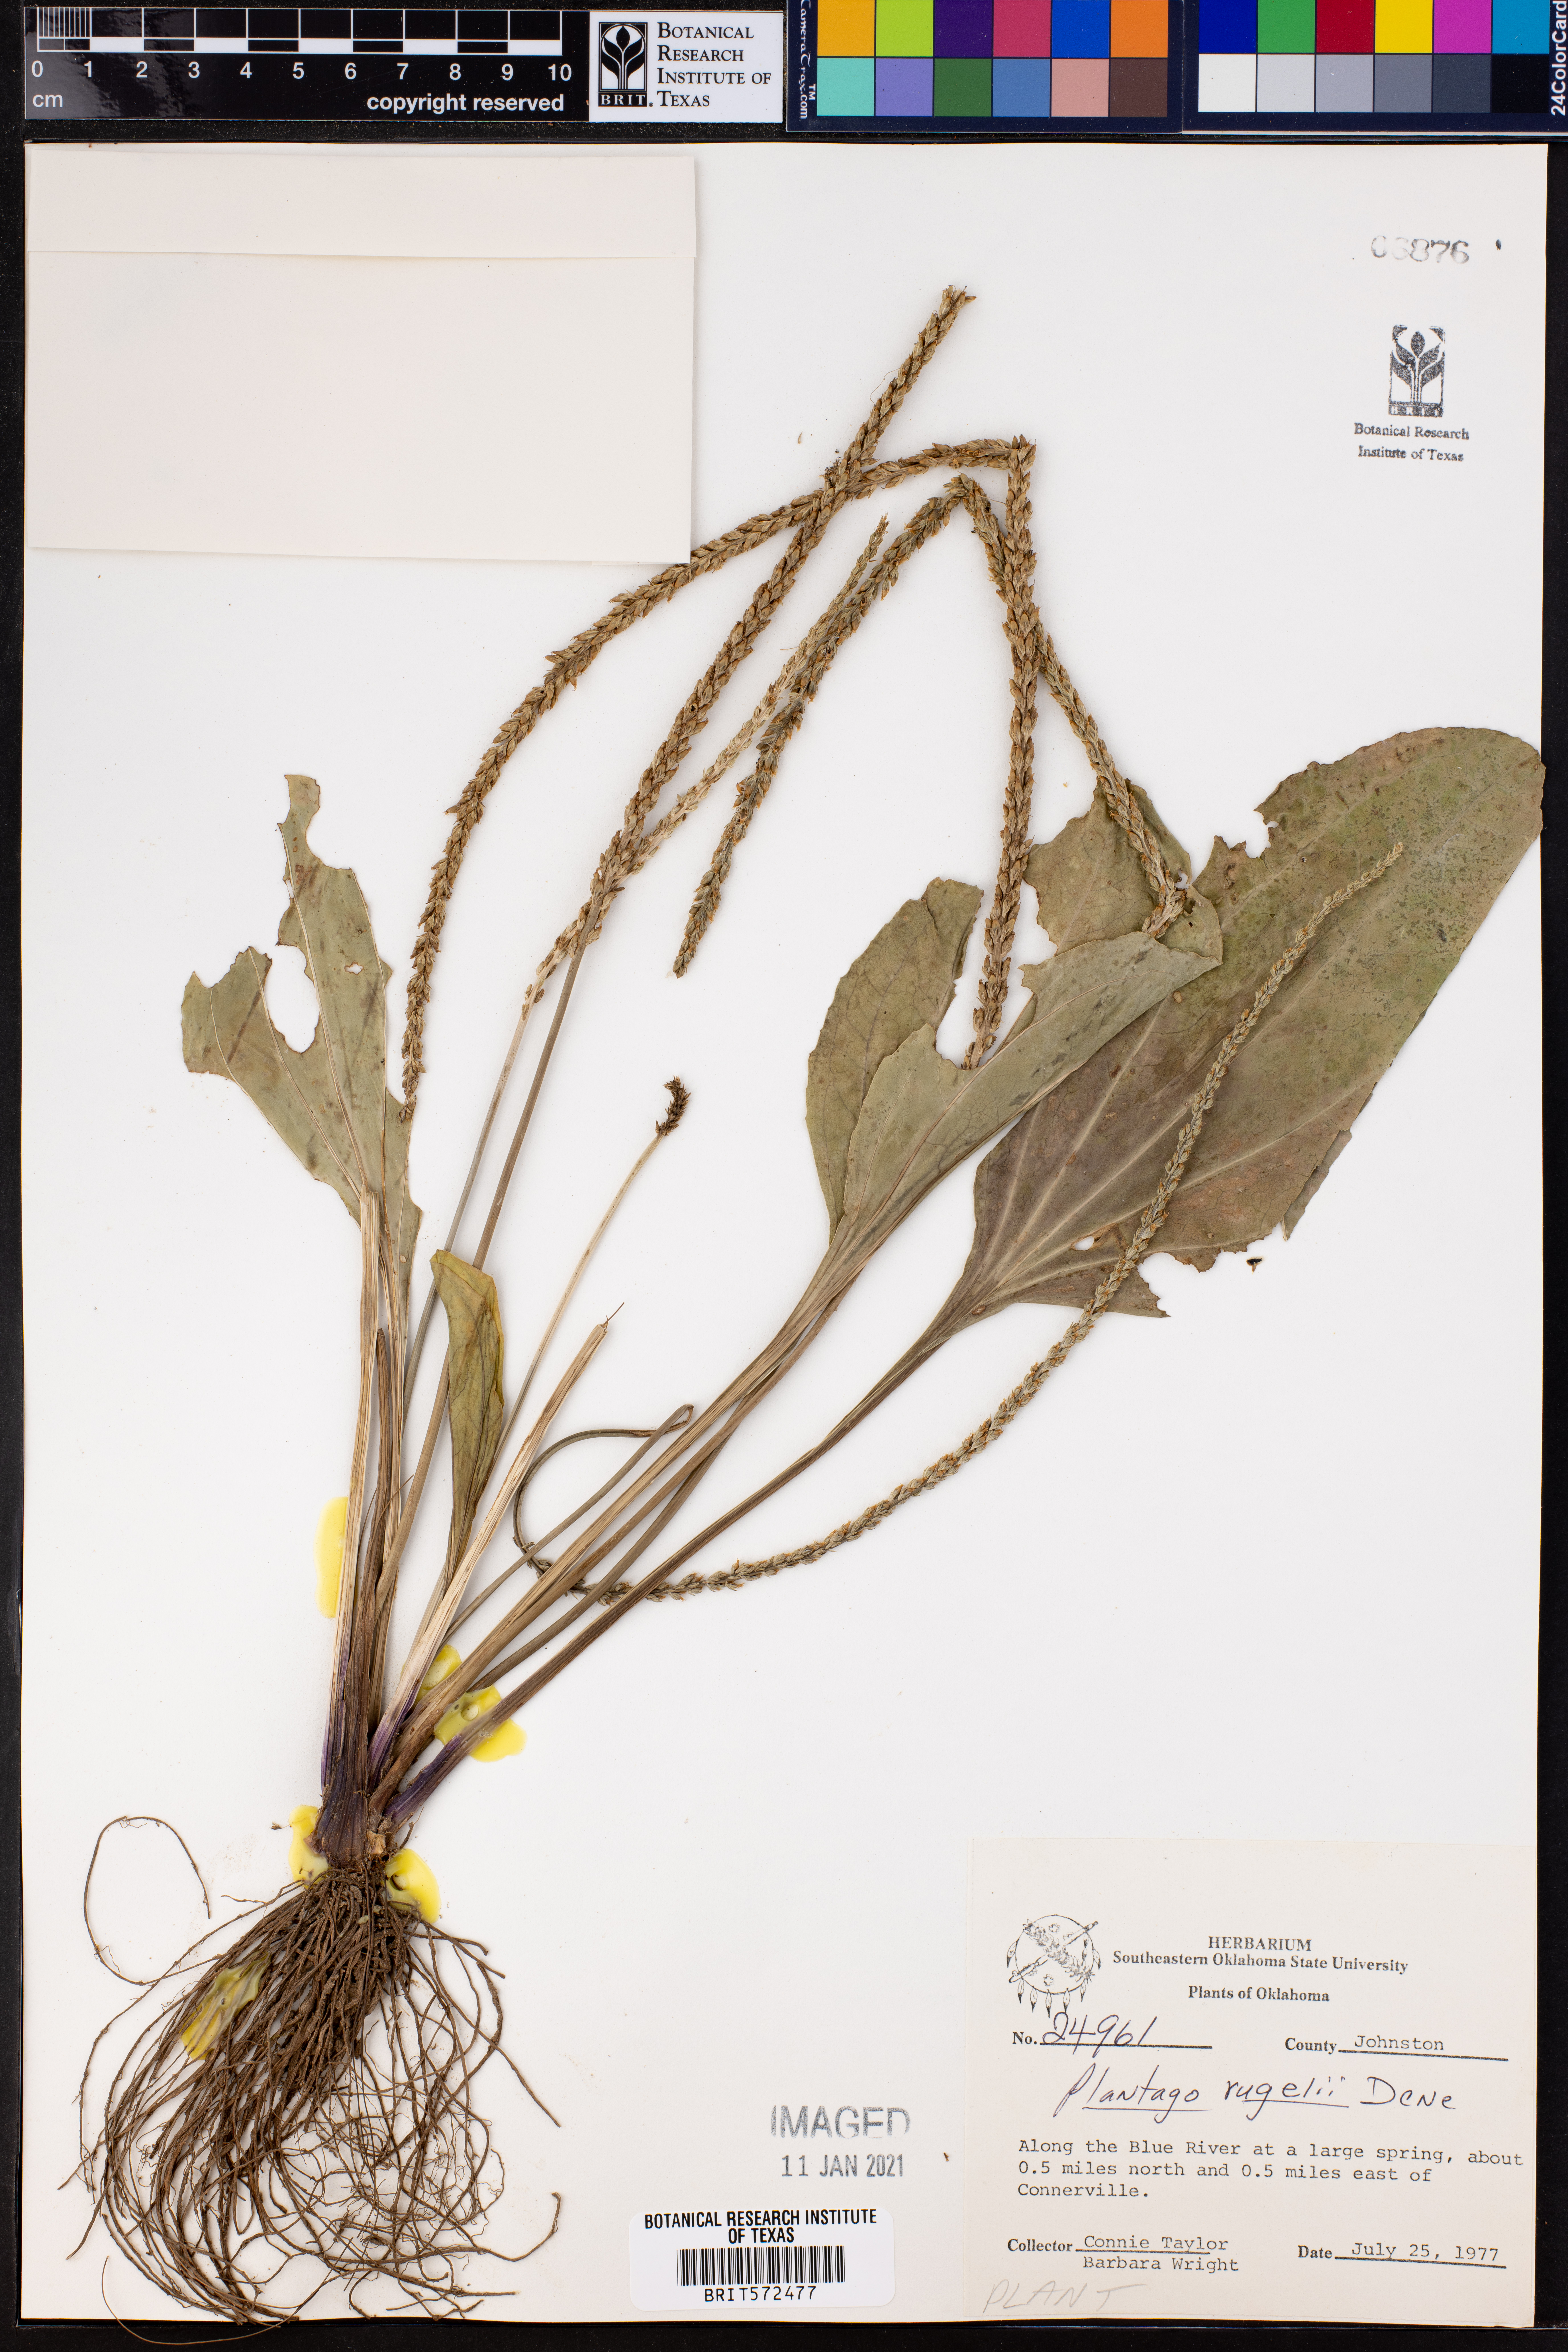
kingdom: Plantae
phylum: Tracheophyta
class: Magnoliopsida
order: Lamiales
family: Plantaginaceae
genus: Plantago
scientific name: Plantago rugelii
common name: American plantain
